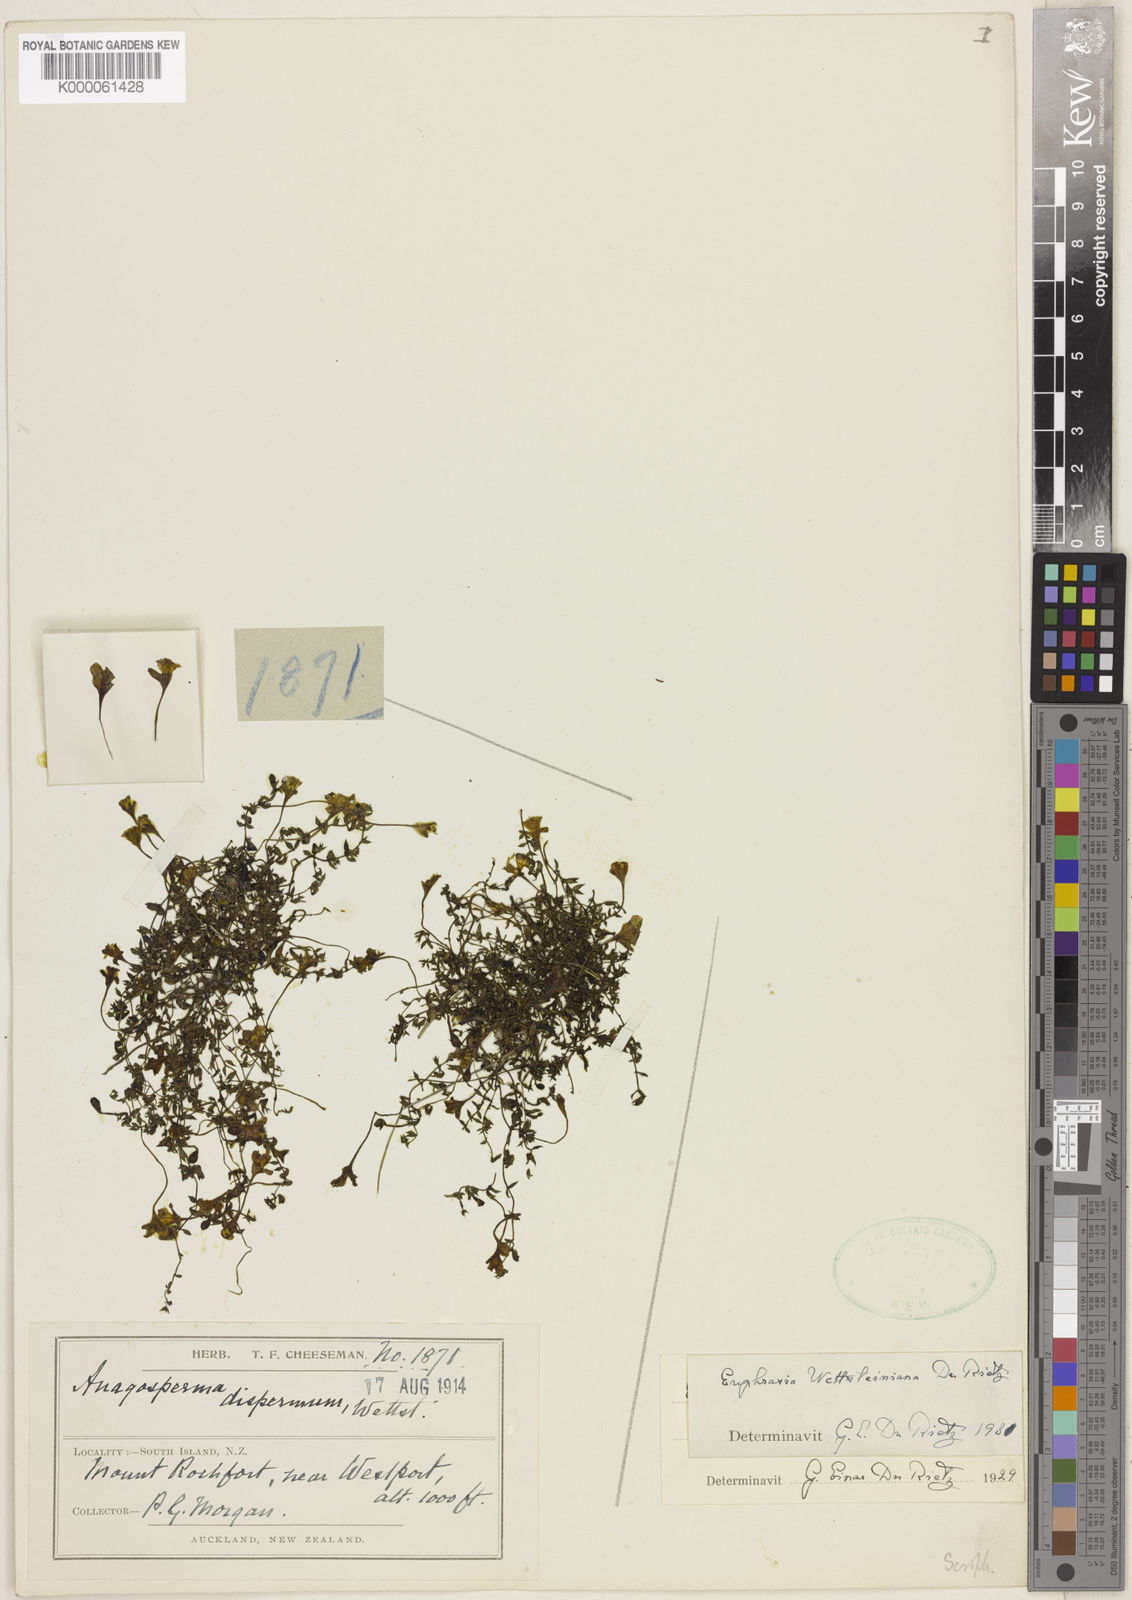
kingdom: Plantae
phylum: Tracheophyta
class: Magnoliopsida
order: Lamiales
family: Orobanchaceae
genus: Euphrasia
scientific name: Euphrasia
